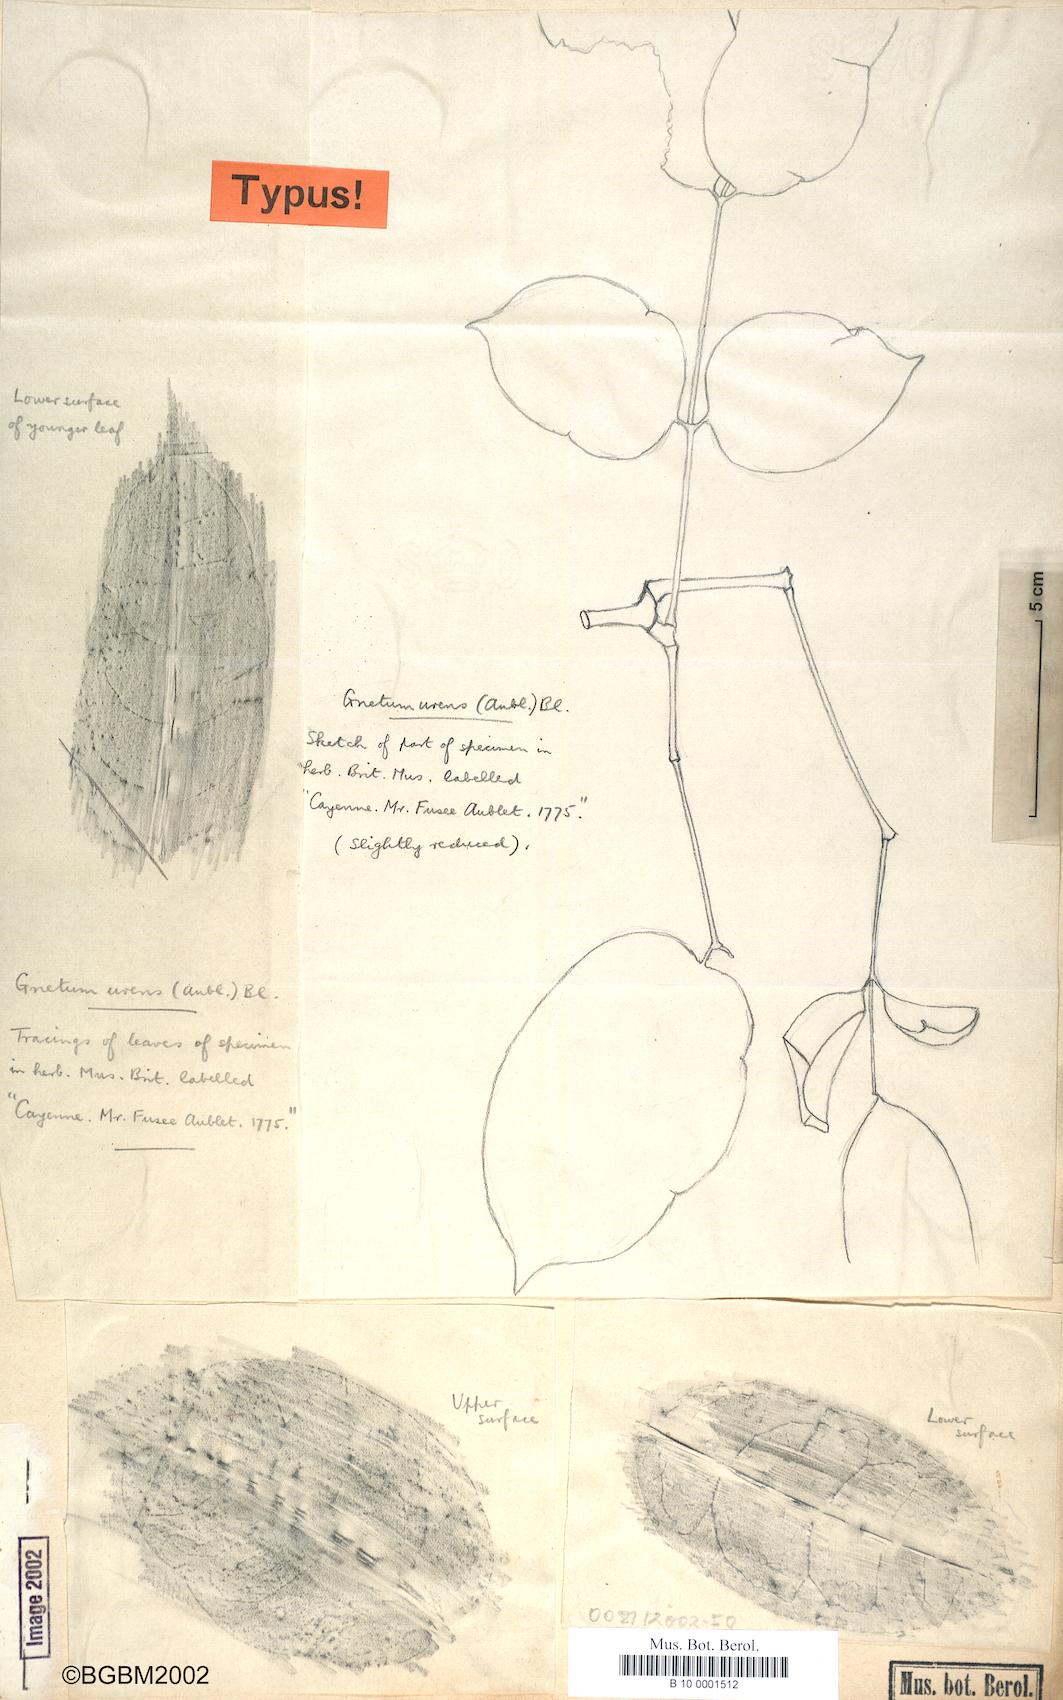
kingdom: Plantae
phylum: Tracheophyta
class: Gnetopsida
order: Gnetales
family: Gnetaceae
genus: Gnetum
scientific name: Gnetum urens
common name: Bell bird's heart
